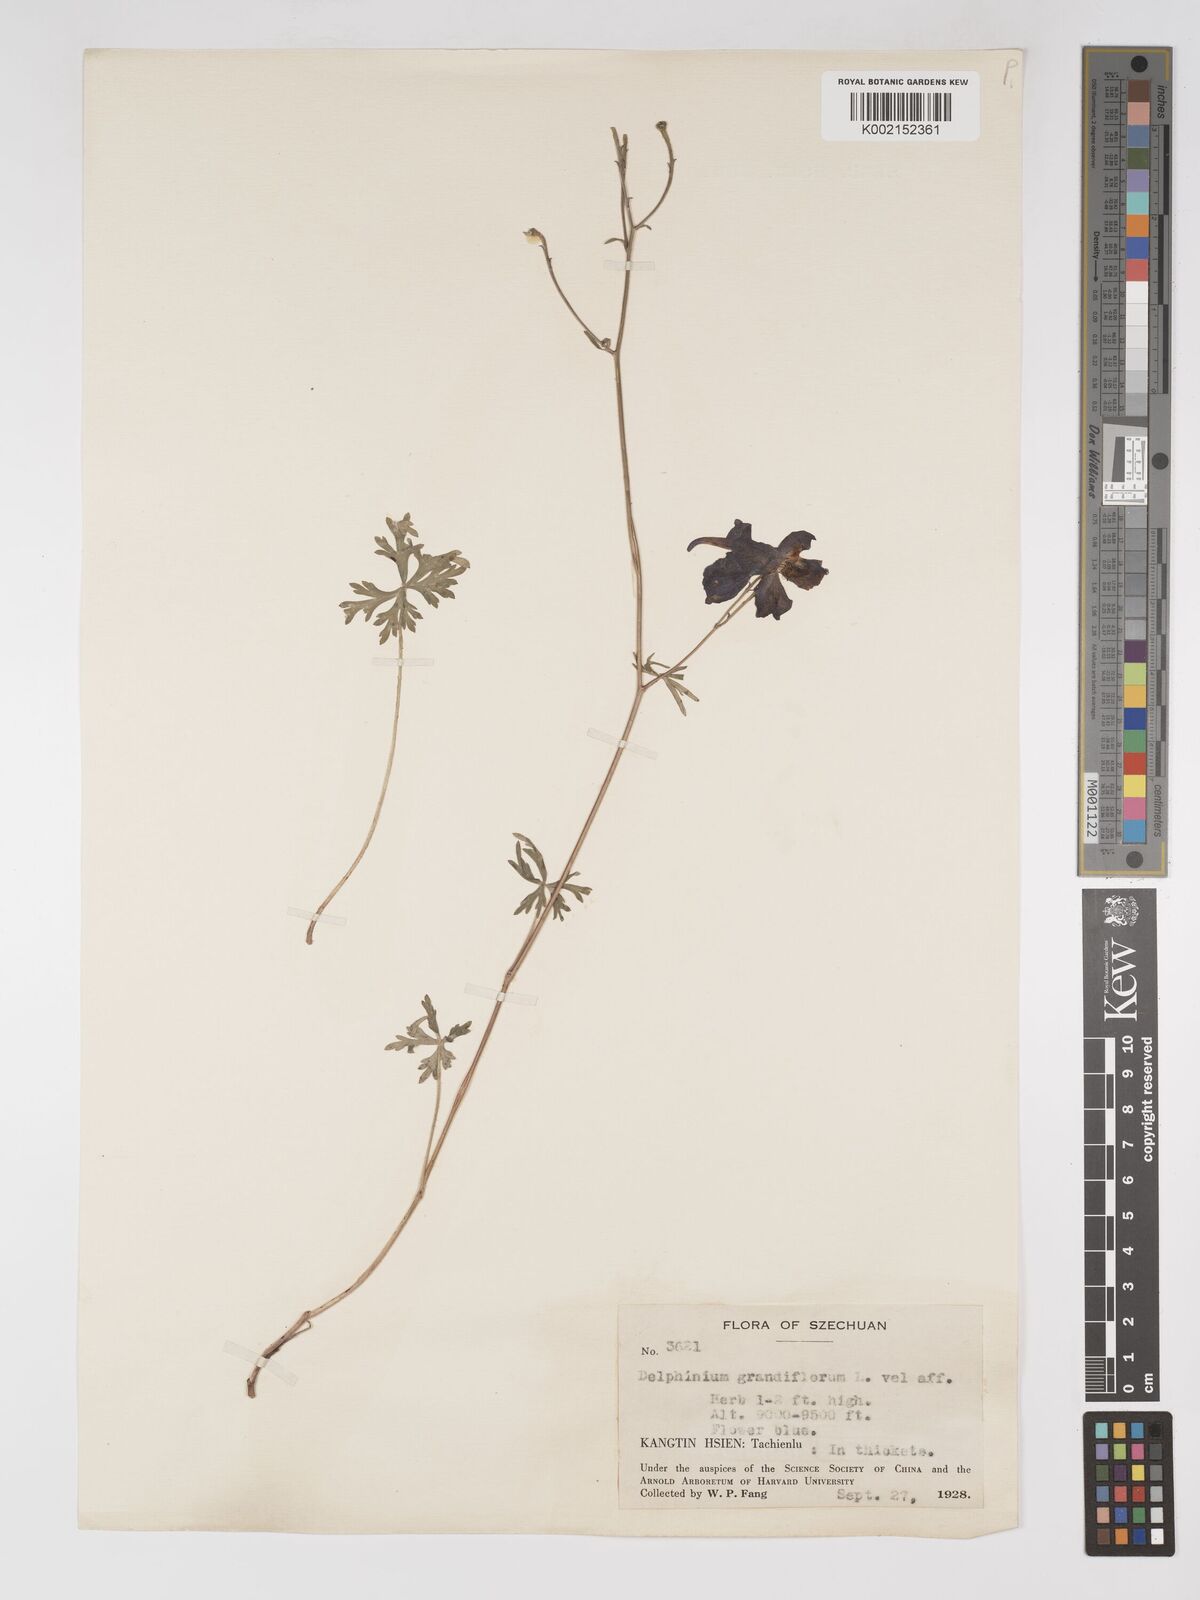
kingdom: Plantae
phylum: Tracheophyta
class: Magnoliopsida
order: Ranunculales
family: Ranunculaceae
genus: Delphinium
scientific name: Delphinium tatsienense
